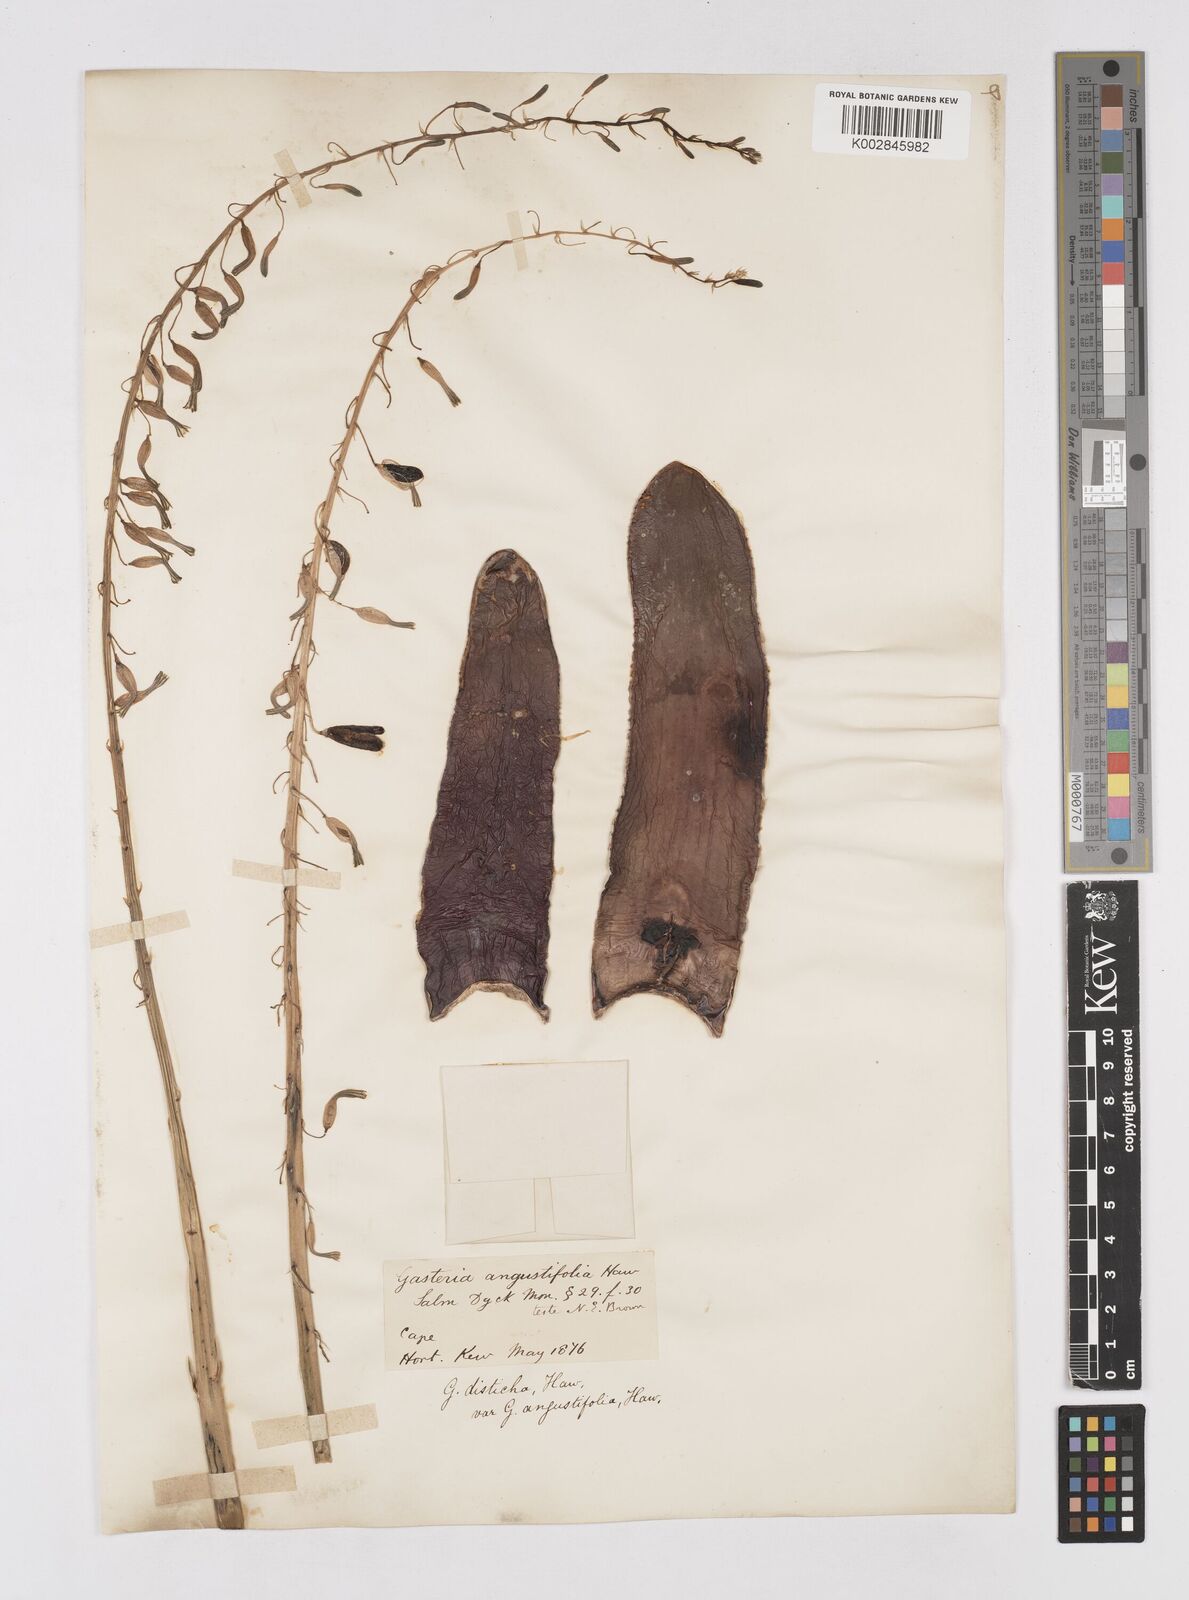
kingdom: Plantae
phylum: Tracheophyta
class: Liliopsida
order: Asparagales
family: Asphodelaceae
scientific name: Asphodelaceae
